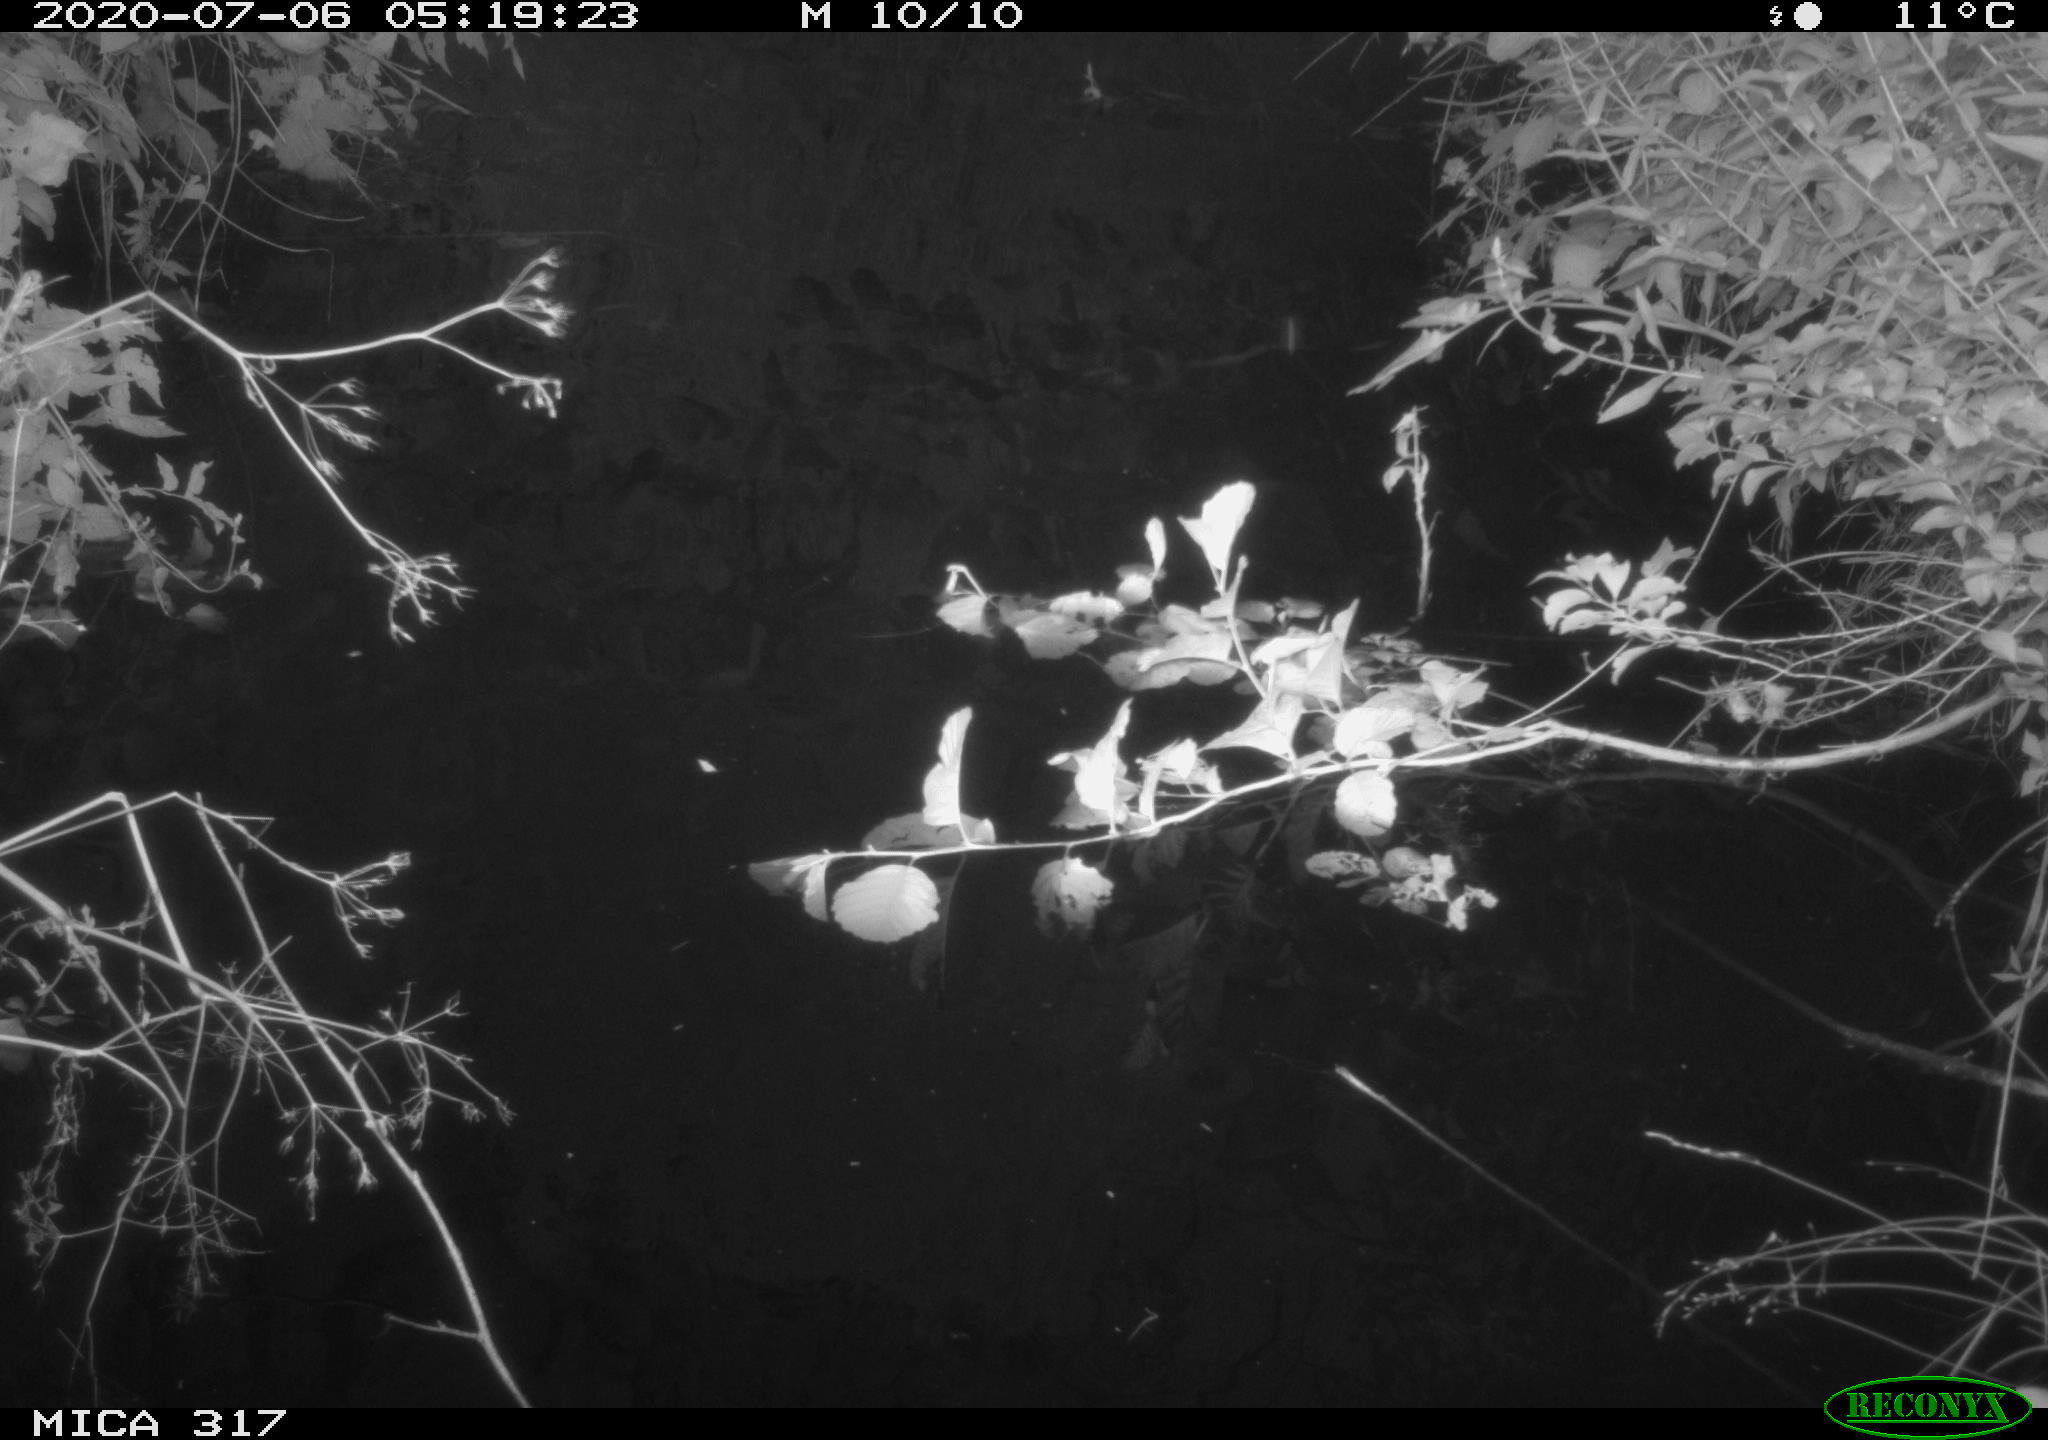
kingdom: Animalia
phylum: Chordata
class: Aves
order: Anseriformes
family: Anatidae
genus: Anas
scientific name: Anas platyrhynchos
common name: Mallard
